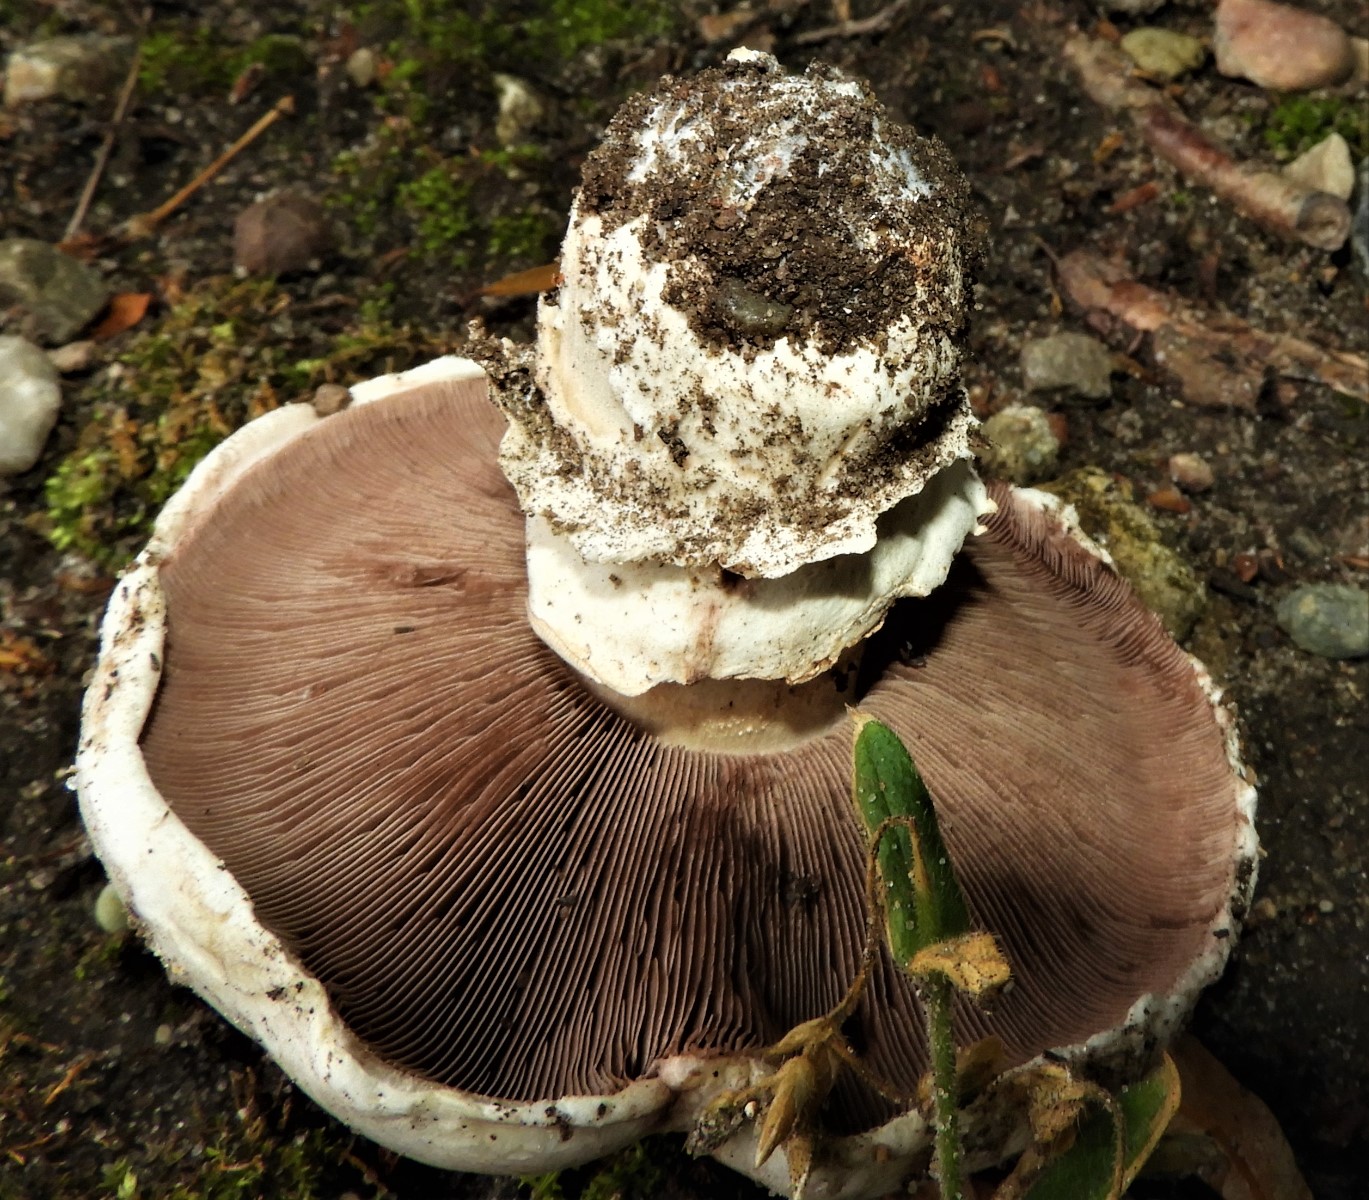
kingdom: Fungi
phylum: Basidiomycota
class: Agaricomycetes
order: Agaricales
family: Agaricaceae
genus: Agaricus
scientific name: Agaricus bitorquis
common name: vej-champignon
